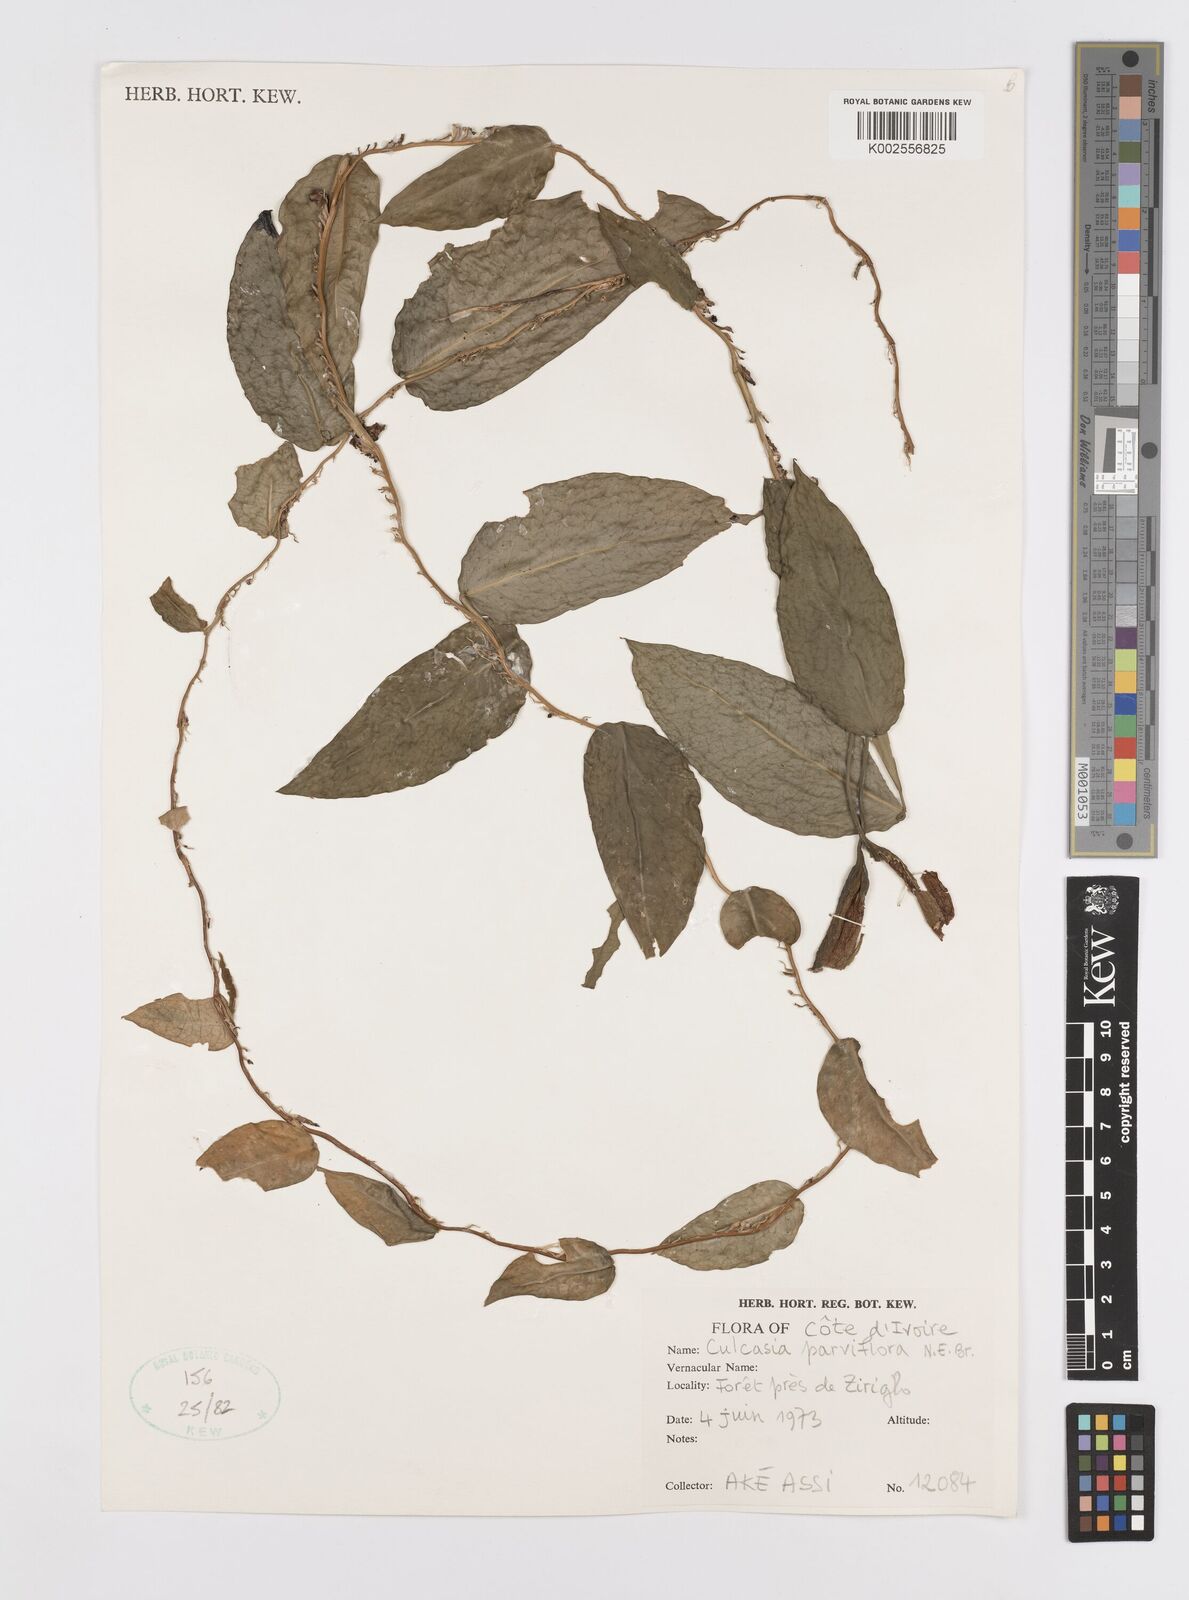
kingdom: Plantae
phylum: Tracheophyta
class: Liliopsida
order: Alismatales
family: Araceae
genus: Culcasia
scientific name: Culcasia parviflora
